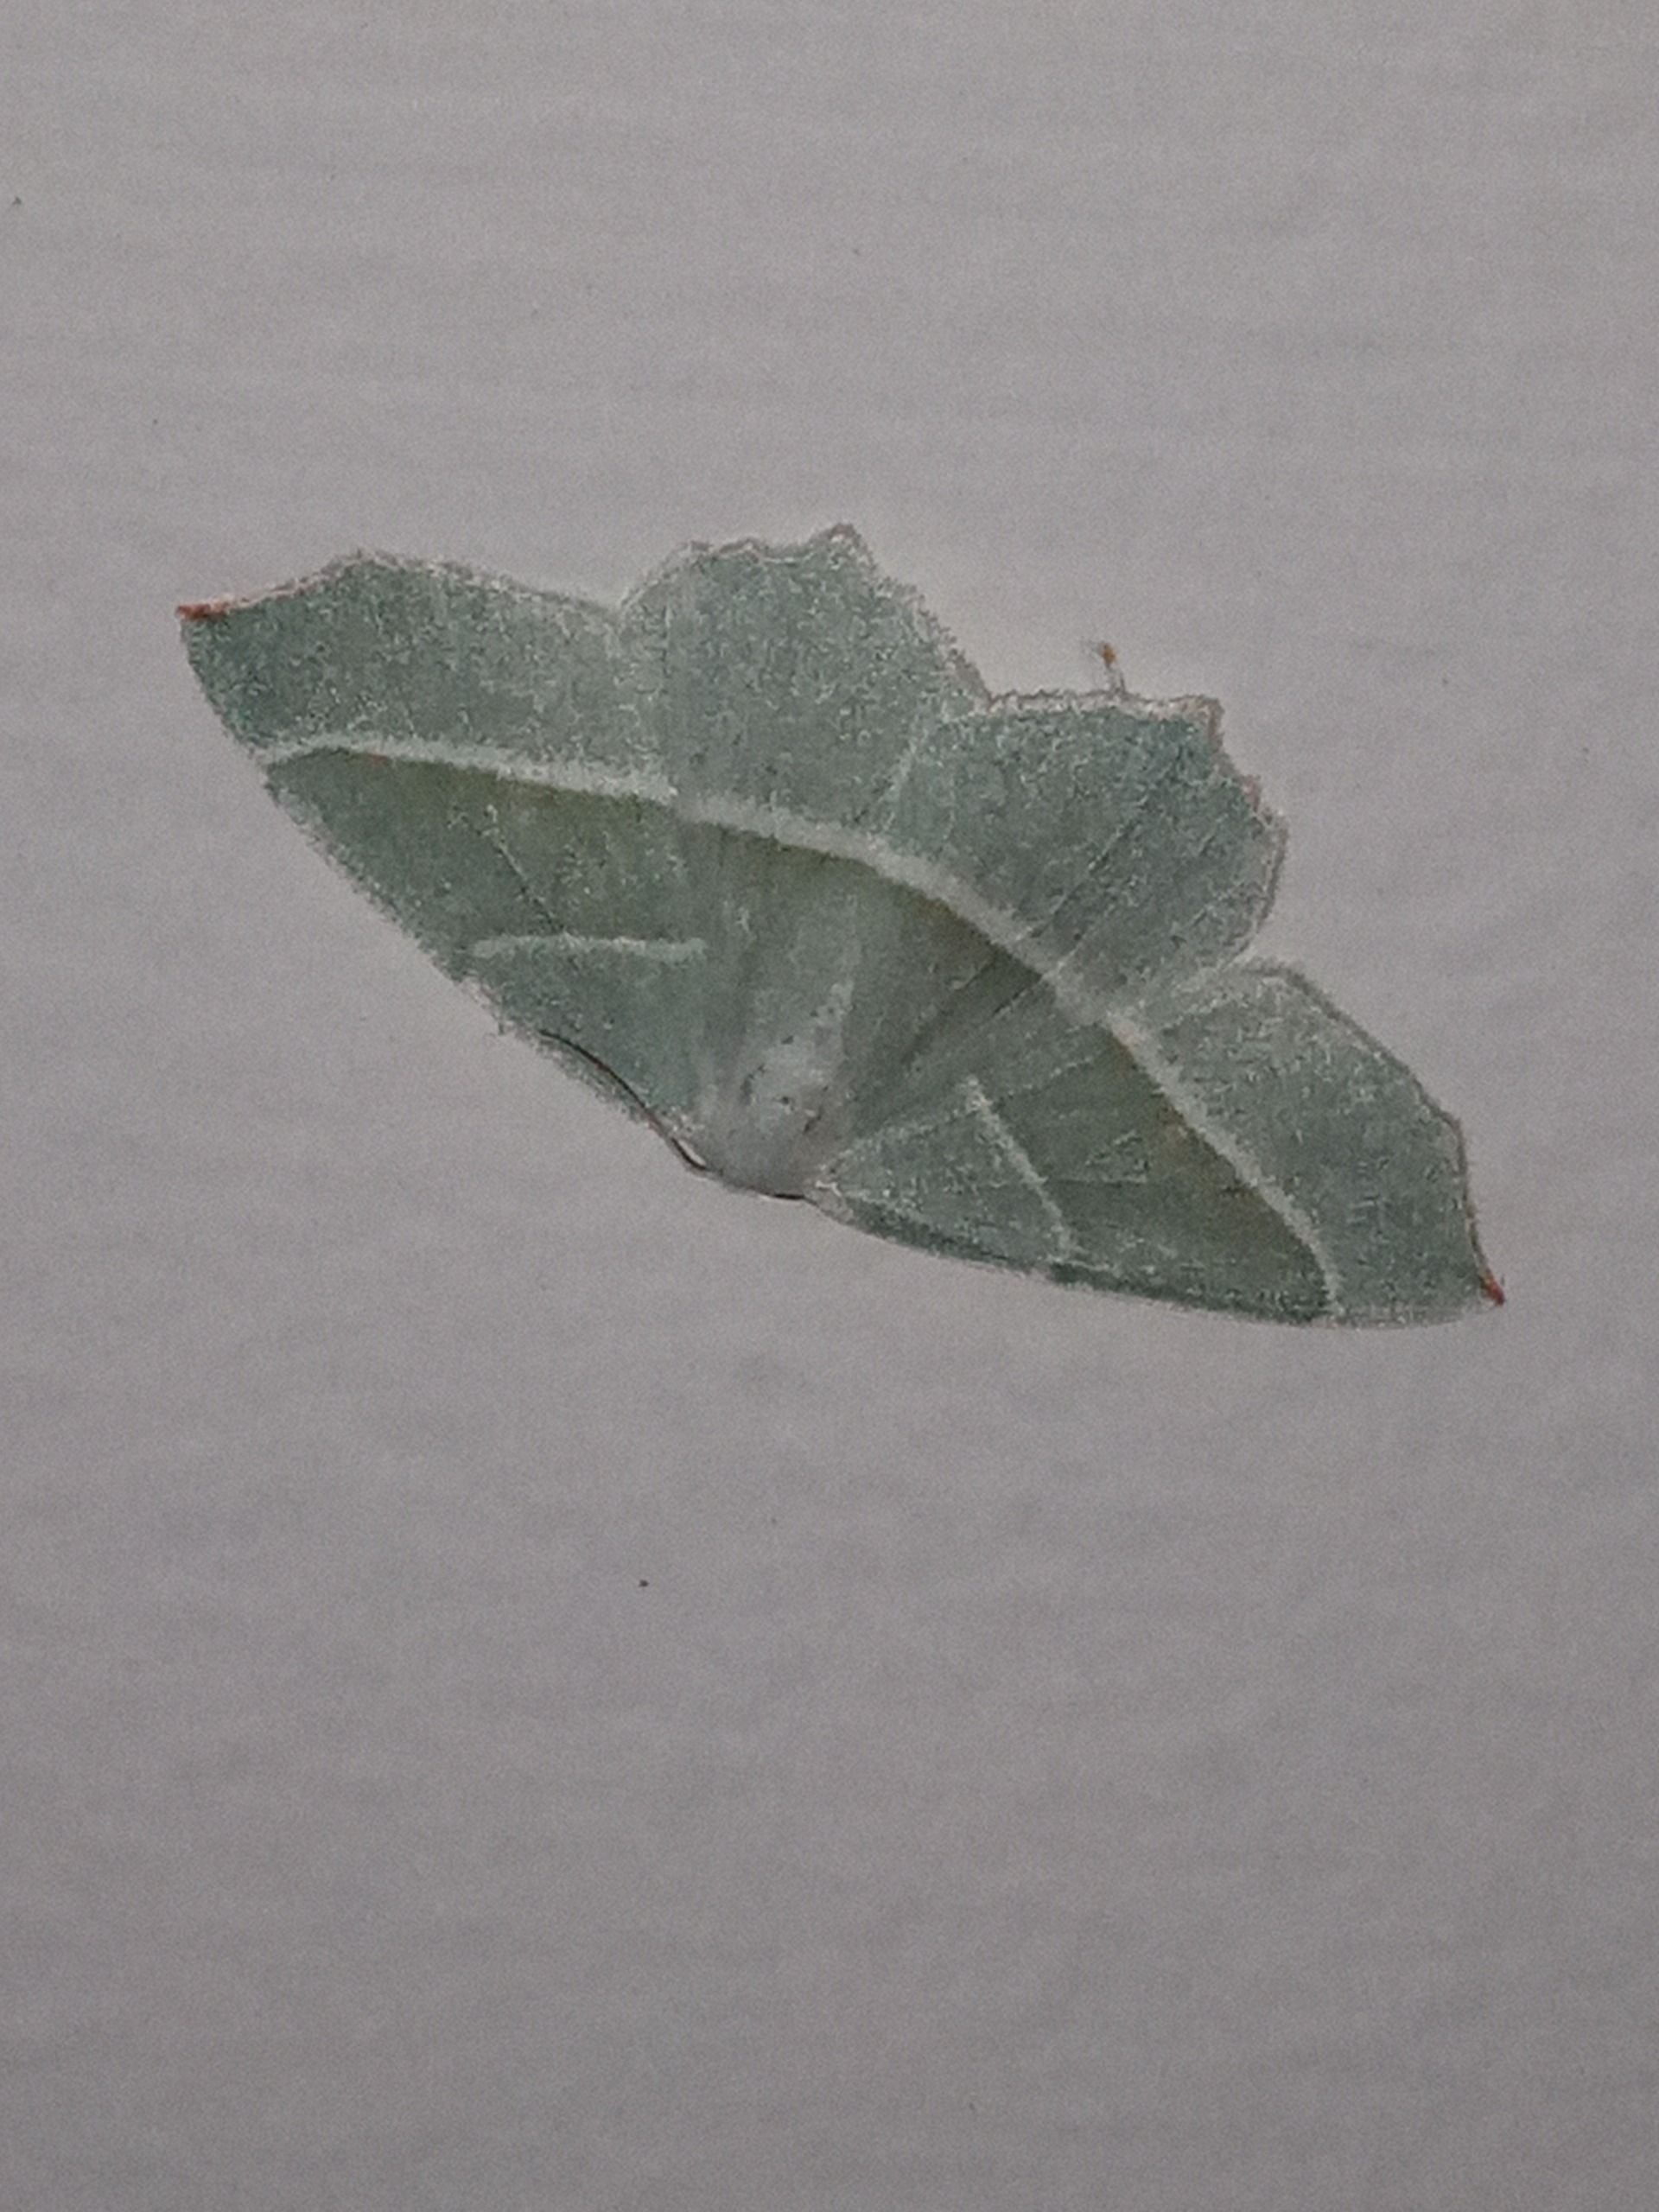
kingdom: Animalia
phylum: Arthropoda
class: Insecta
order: Lepidoptera
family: Geometridae
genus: Campaea
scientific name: Campaea margaritaria
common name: Perlemåler
